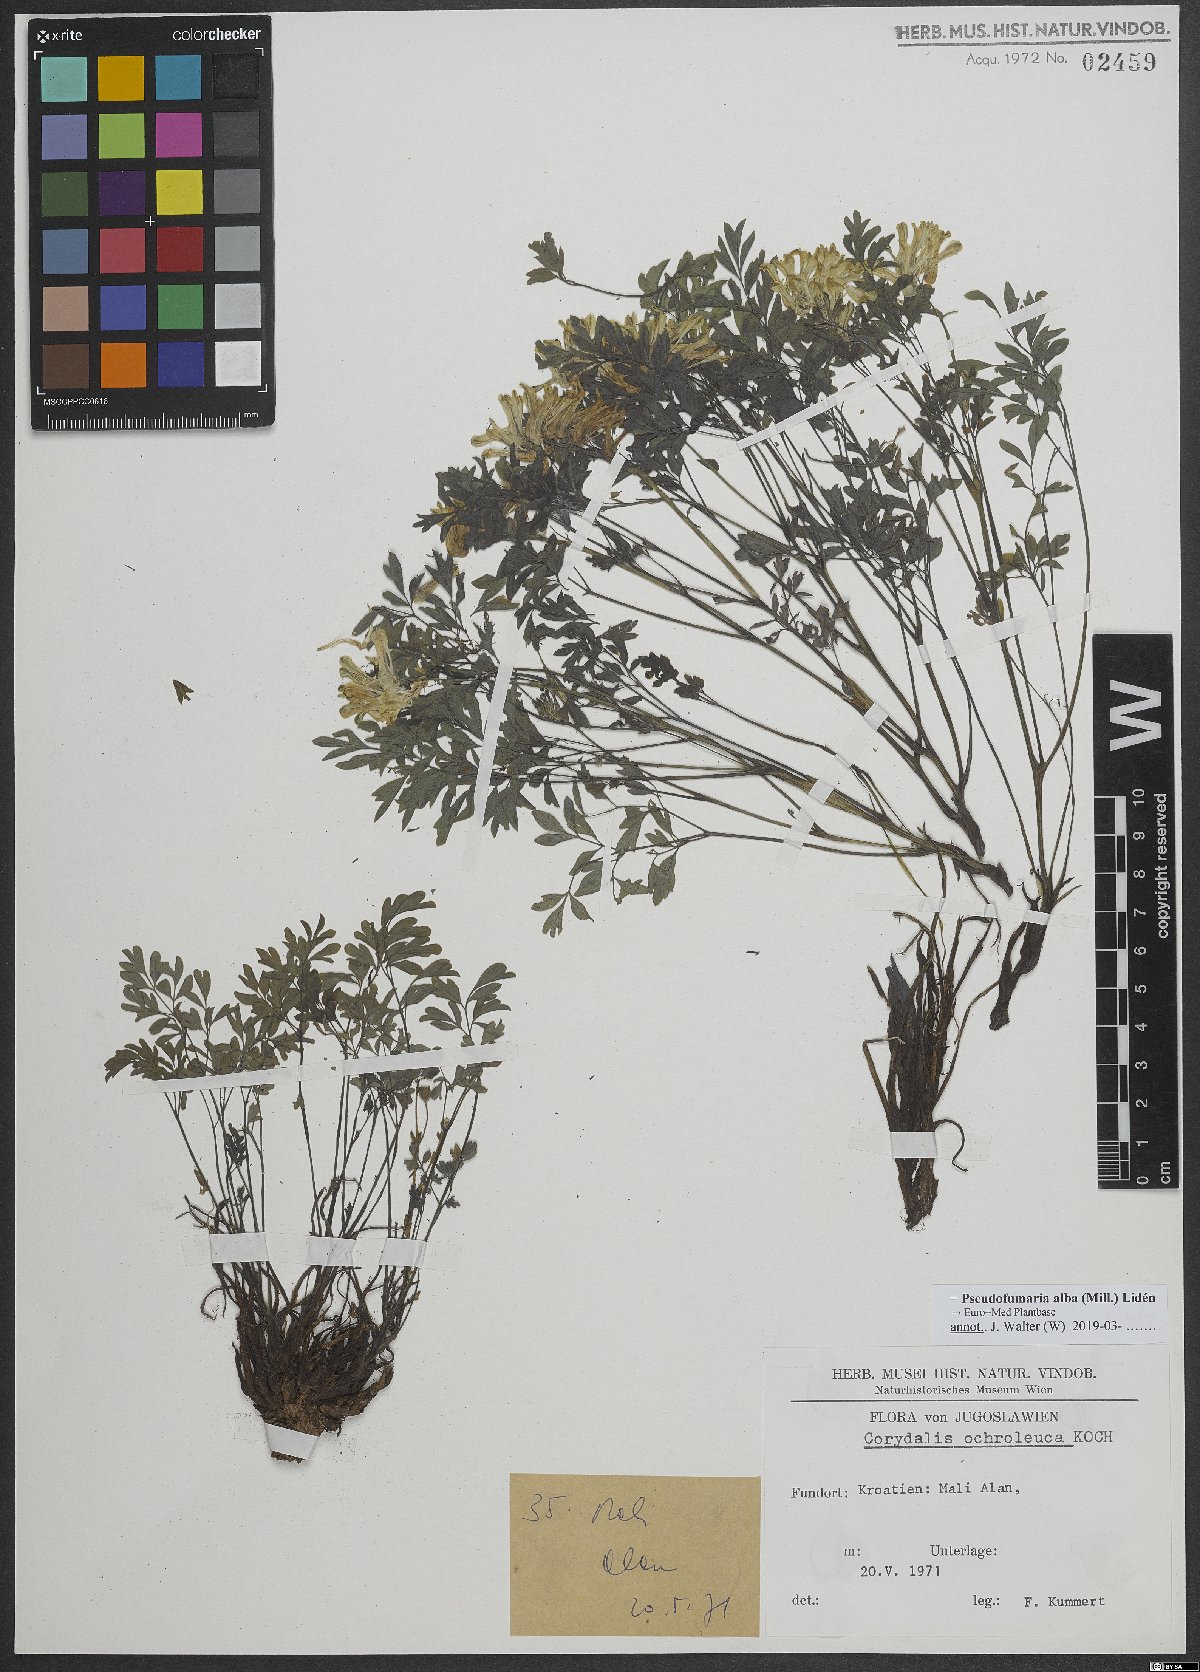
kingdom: Plantae
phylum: Tracheophyta
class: Magnoliopsida
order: Ranunculales
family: Papaveraceae
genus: Pseudofumaria
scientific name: Pseudofumaria alba
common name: Pale corydalis
